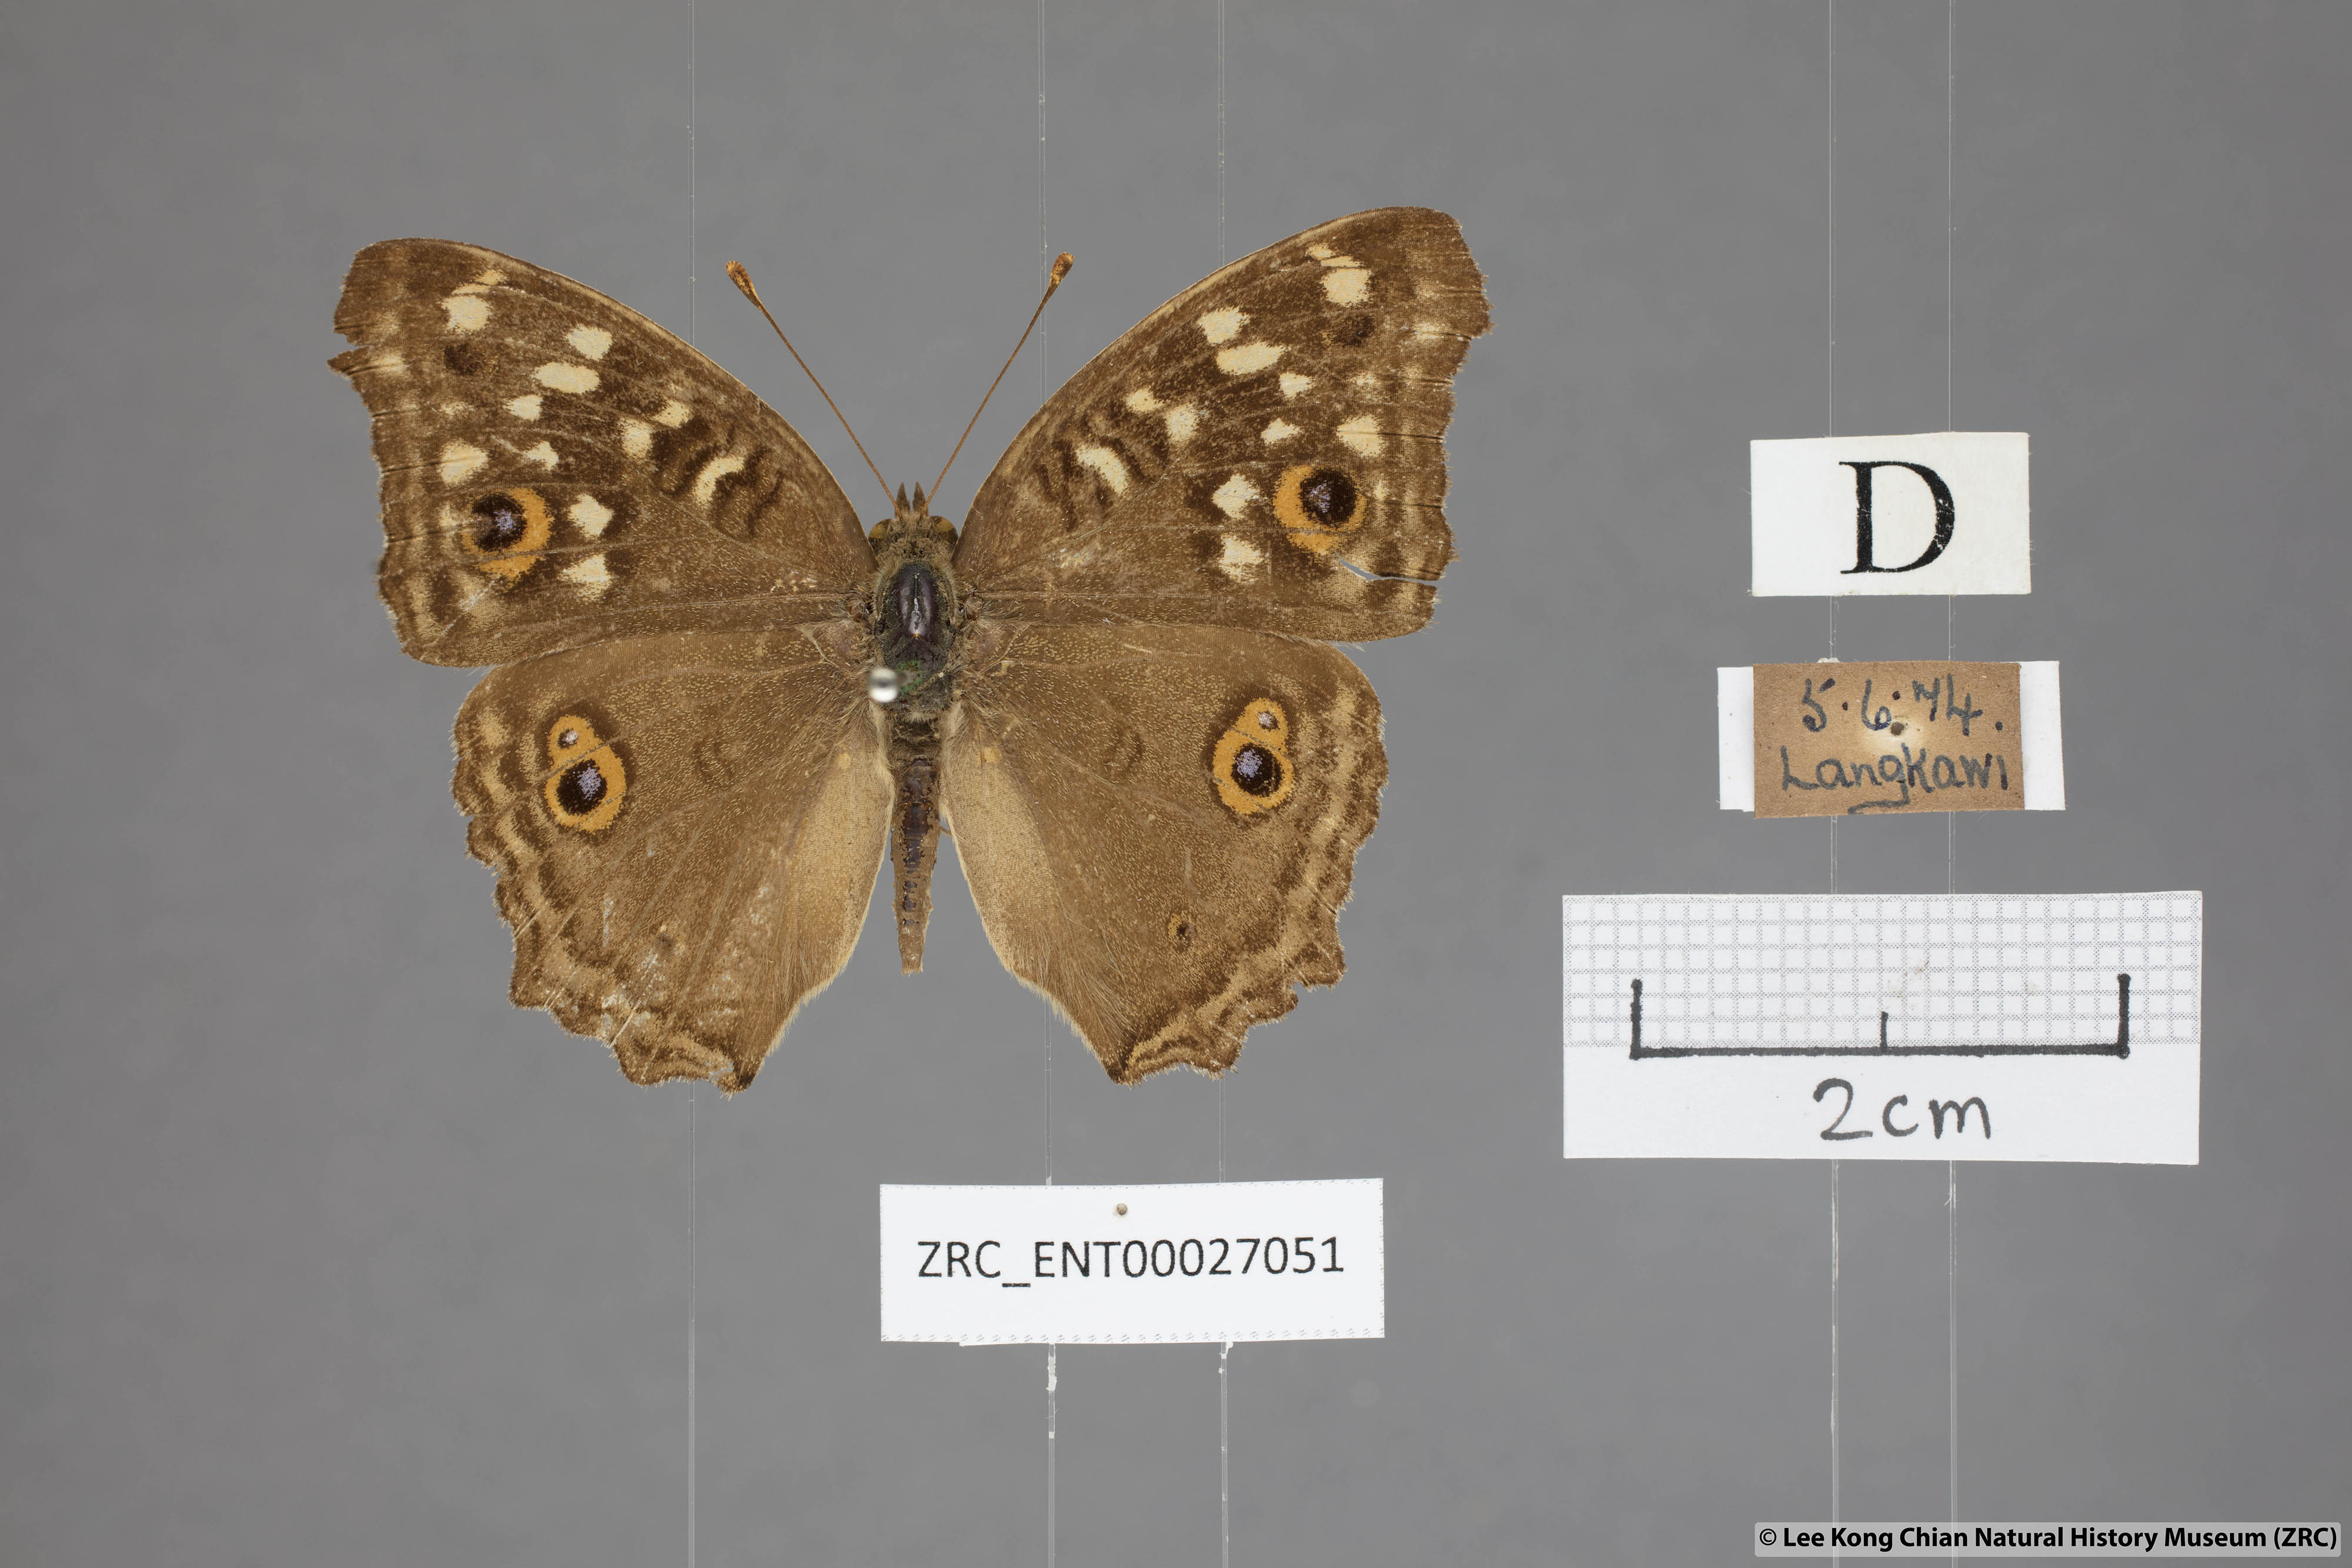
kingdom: Animalia
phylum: Arthropoda
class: Insecta
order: Lepidoptera
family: Nymphalidae
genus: Junonia
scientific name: Junonia lemonias
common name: Lemon pansy
